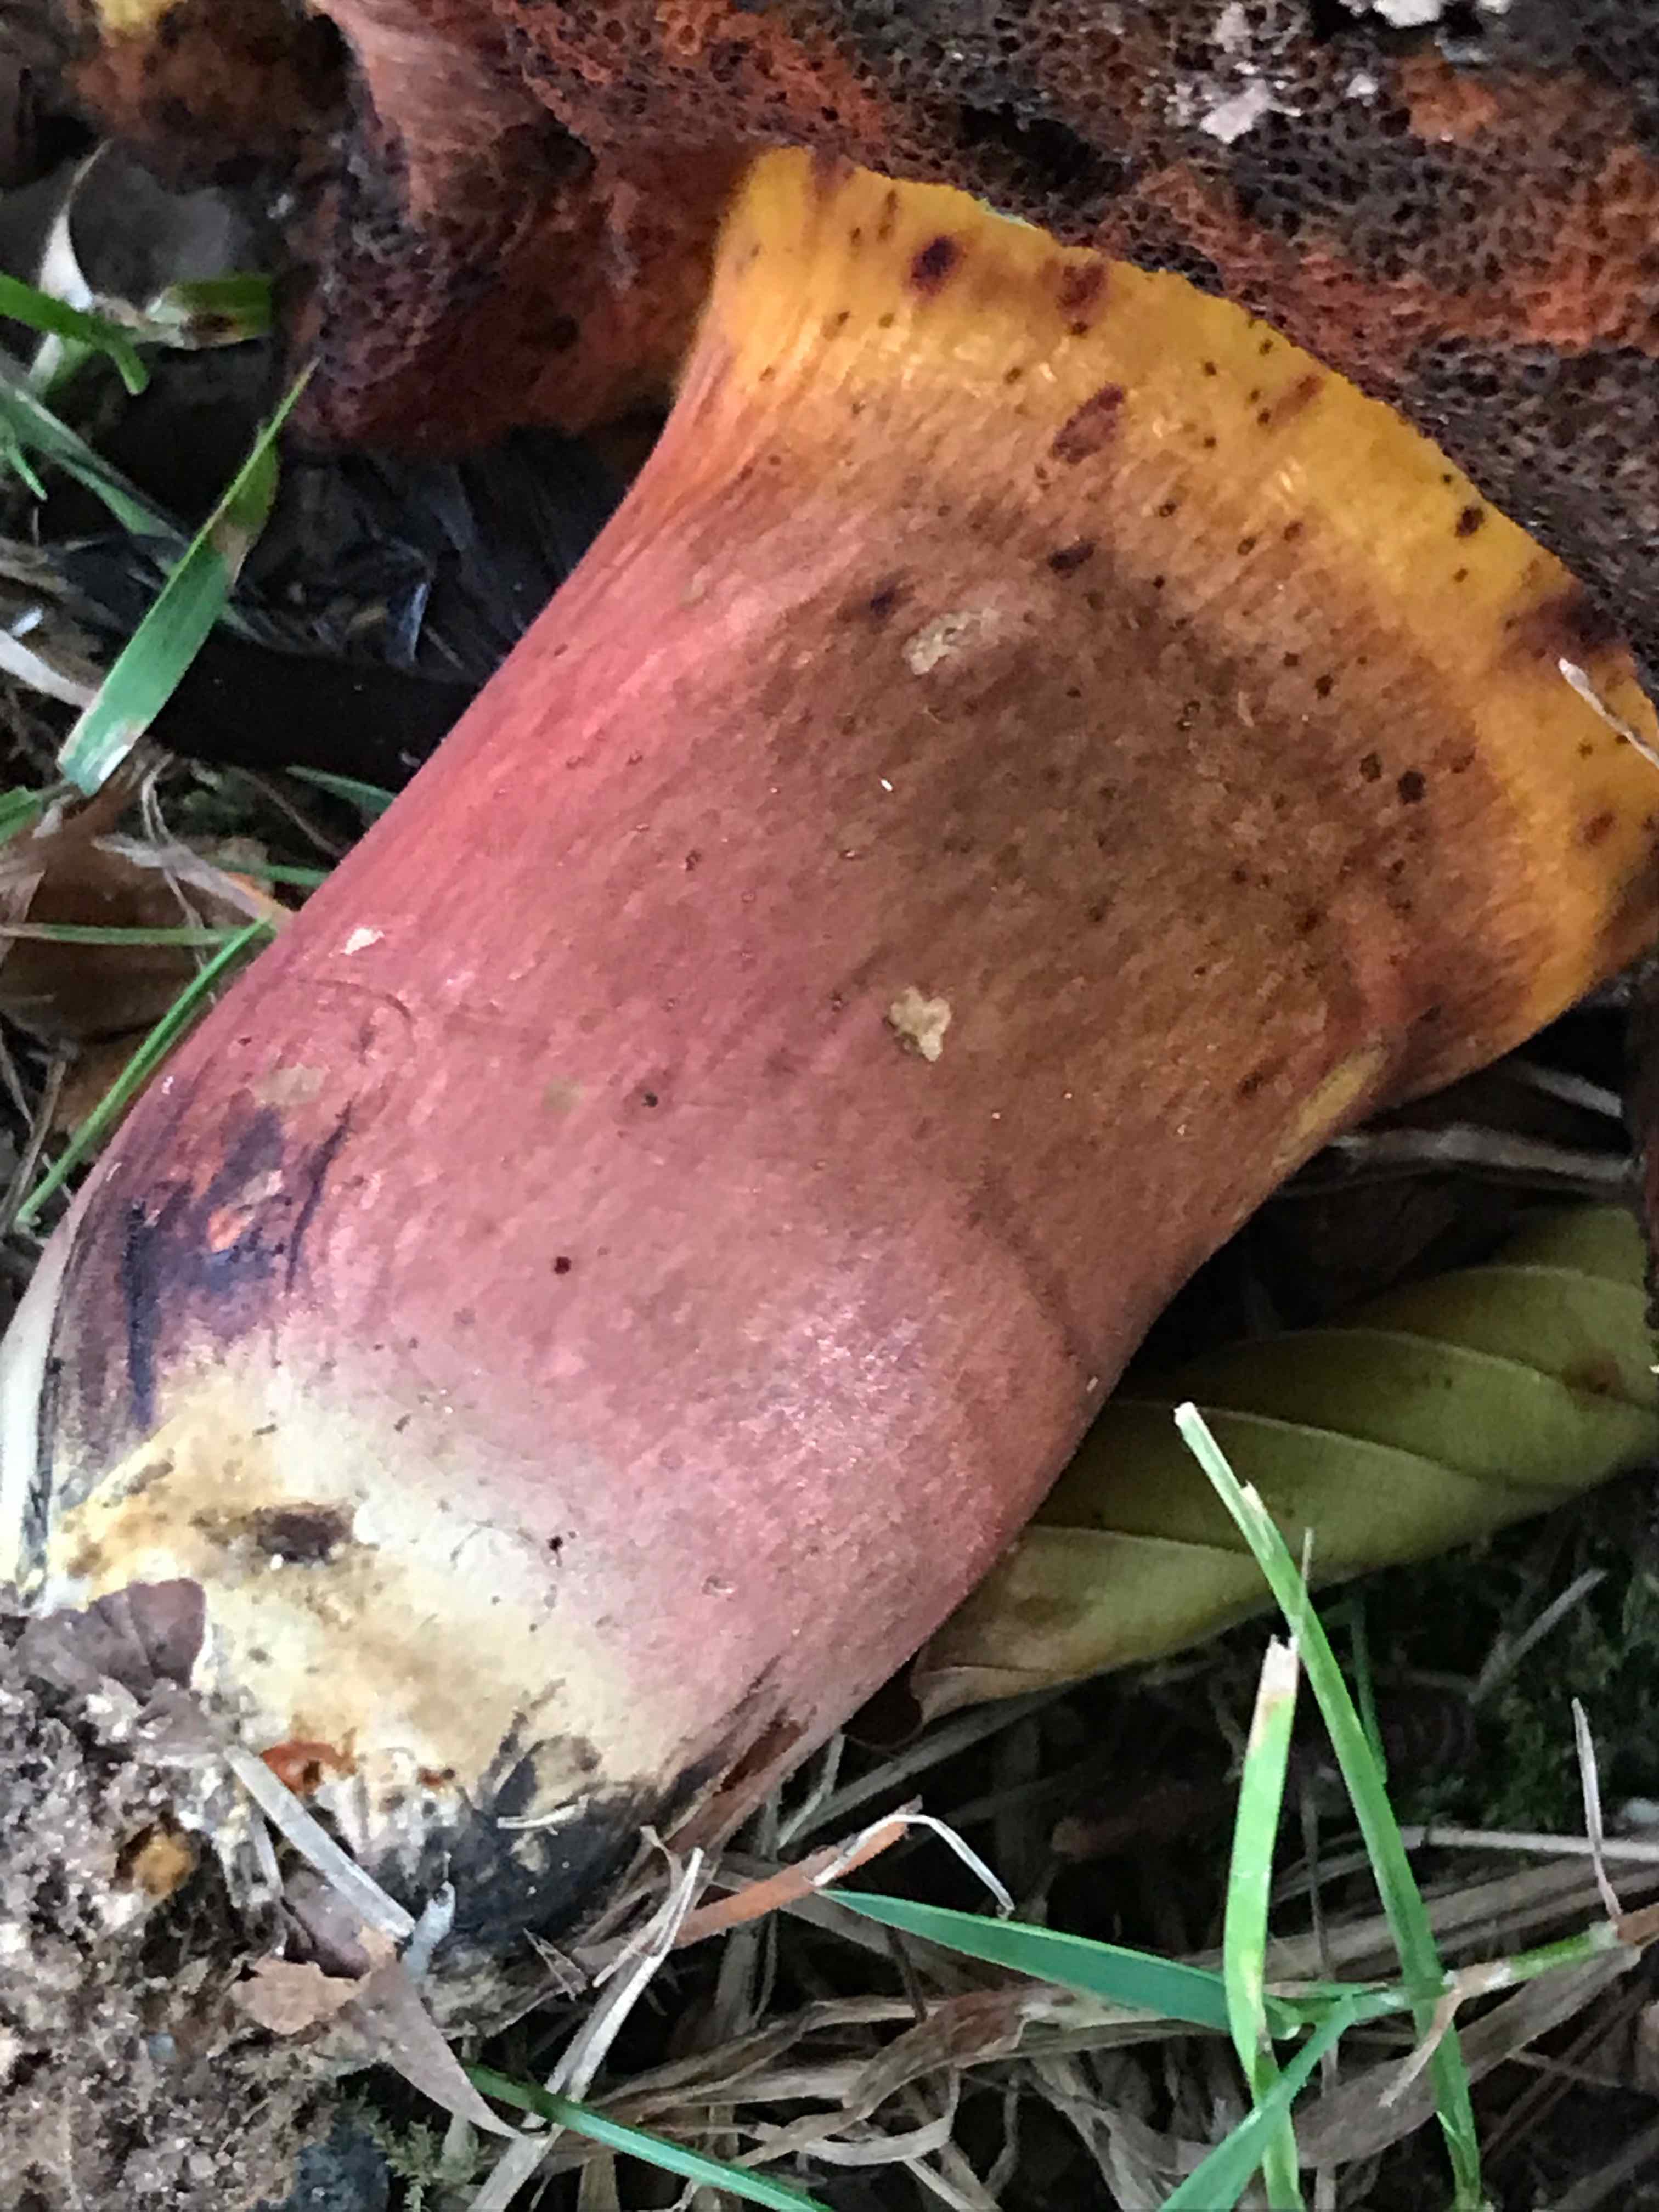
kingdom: Fungi
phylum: Basidiomycota
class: Agaricomycetes
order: Boletales
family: Boletaceae
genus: Neoboletus
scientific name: Neoboletus xanthopus
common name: finprikket indigorørhat
